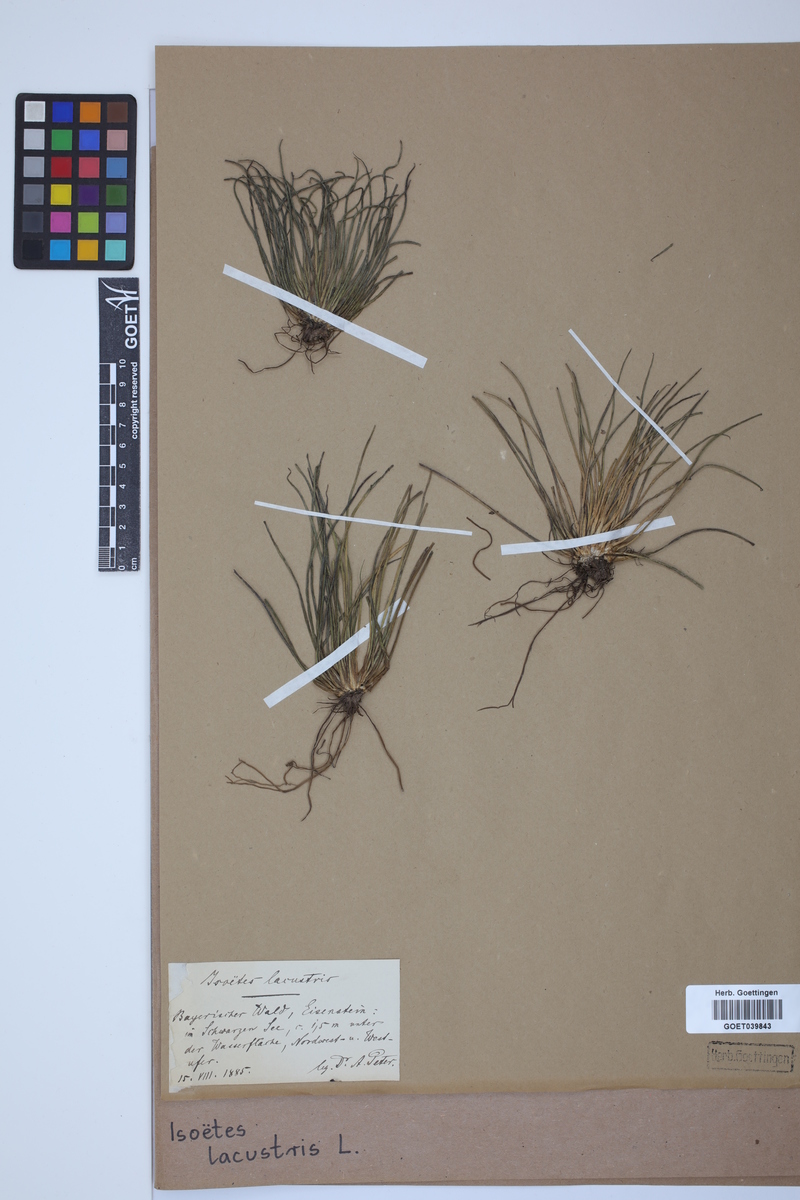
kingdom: Plantae
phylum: Tracheophyta
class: Lycopodiopsida
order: Isoetales
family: Isoetaceae
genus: Isoetes
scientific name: Isoetes lacustris
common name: Common quillwort
